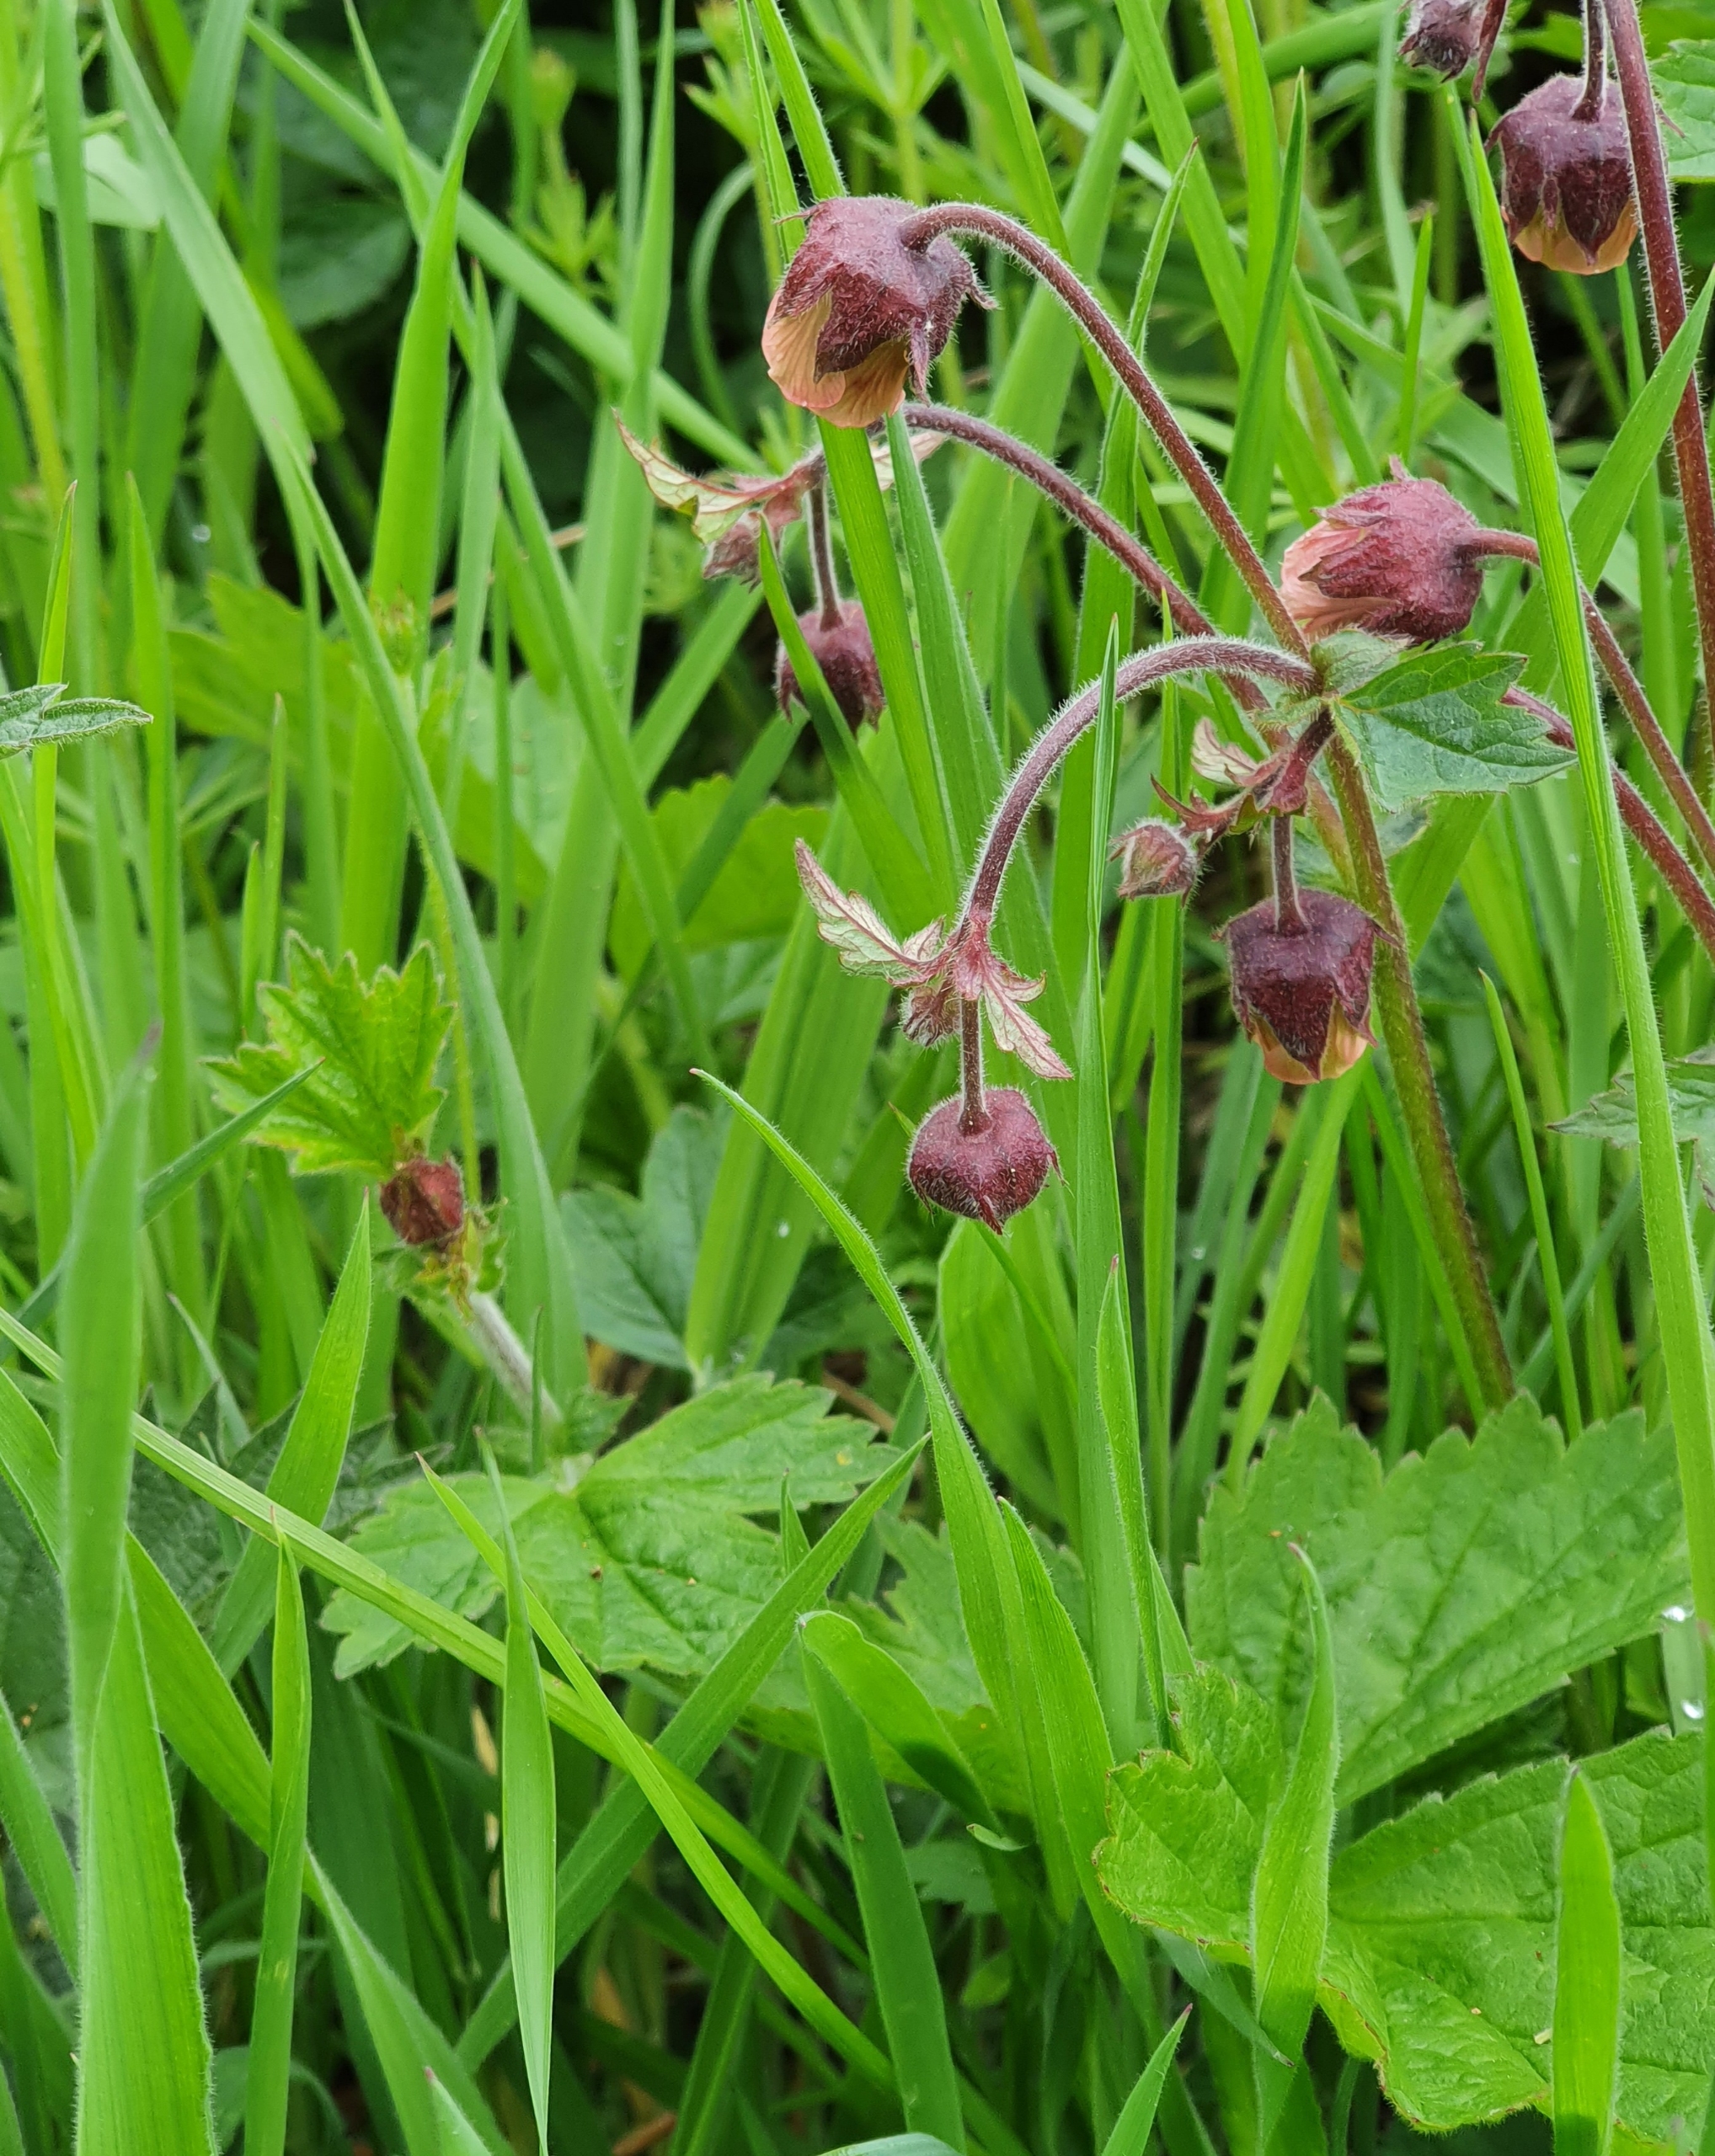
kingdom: Plantae
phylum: Tracheophyta
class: Magnoliopsida
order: Rosales
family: Rosaceae
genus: Geum
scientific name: Geum rivale
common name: Eng-nellikerod
